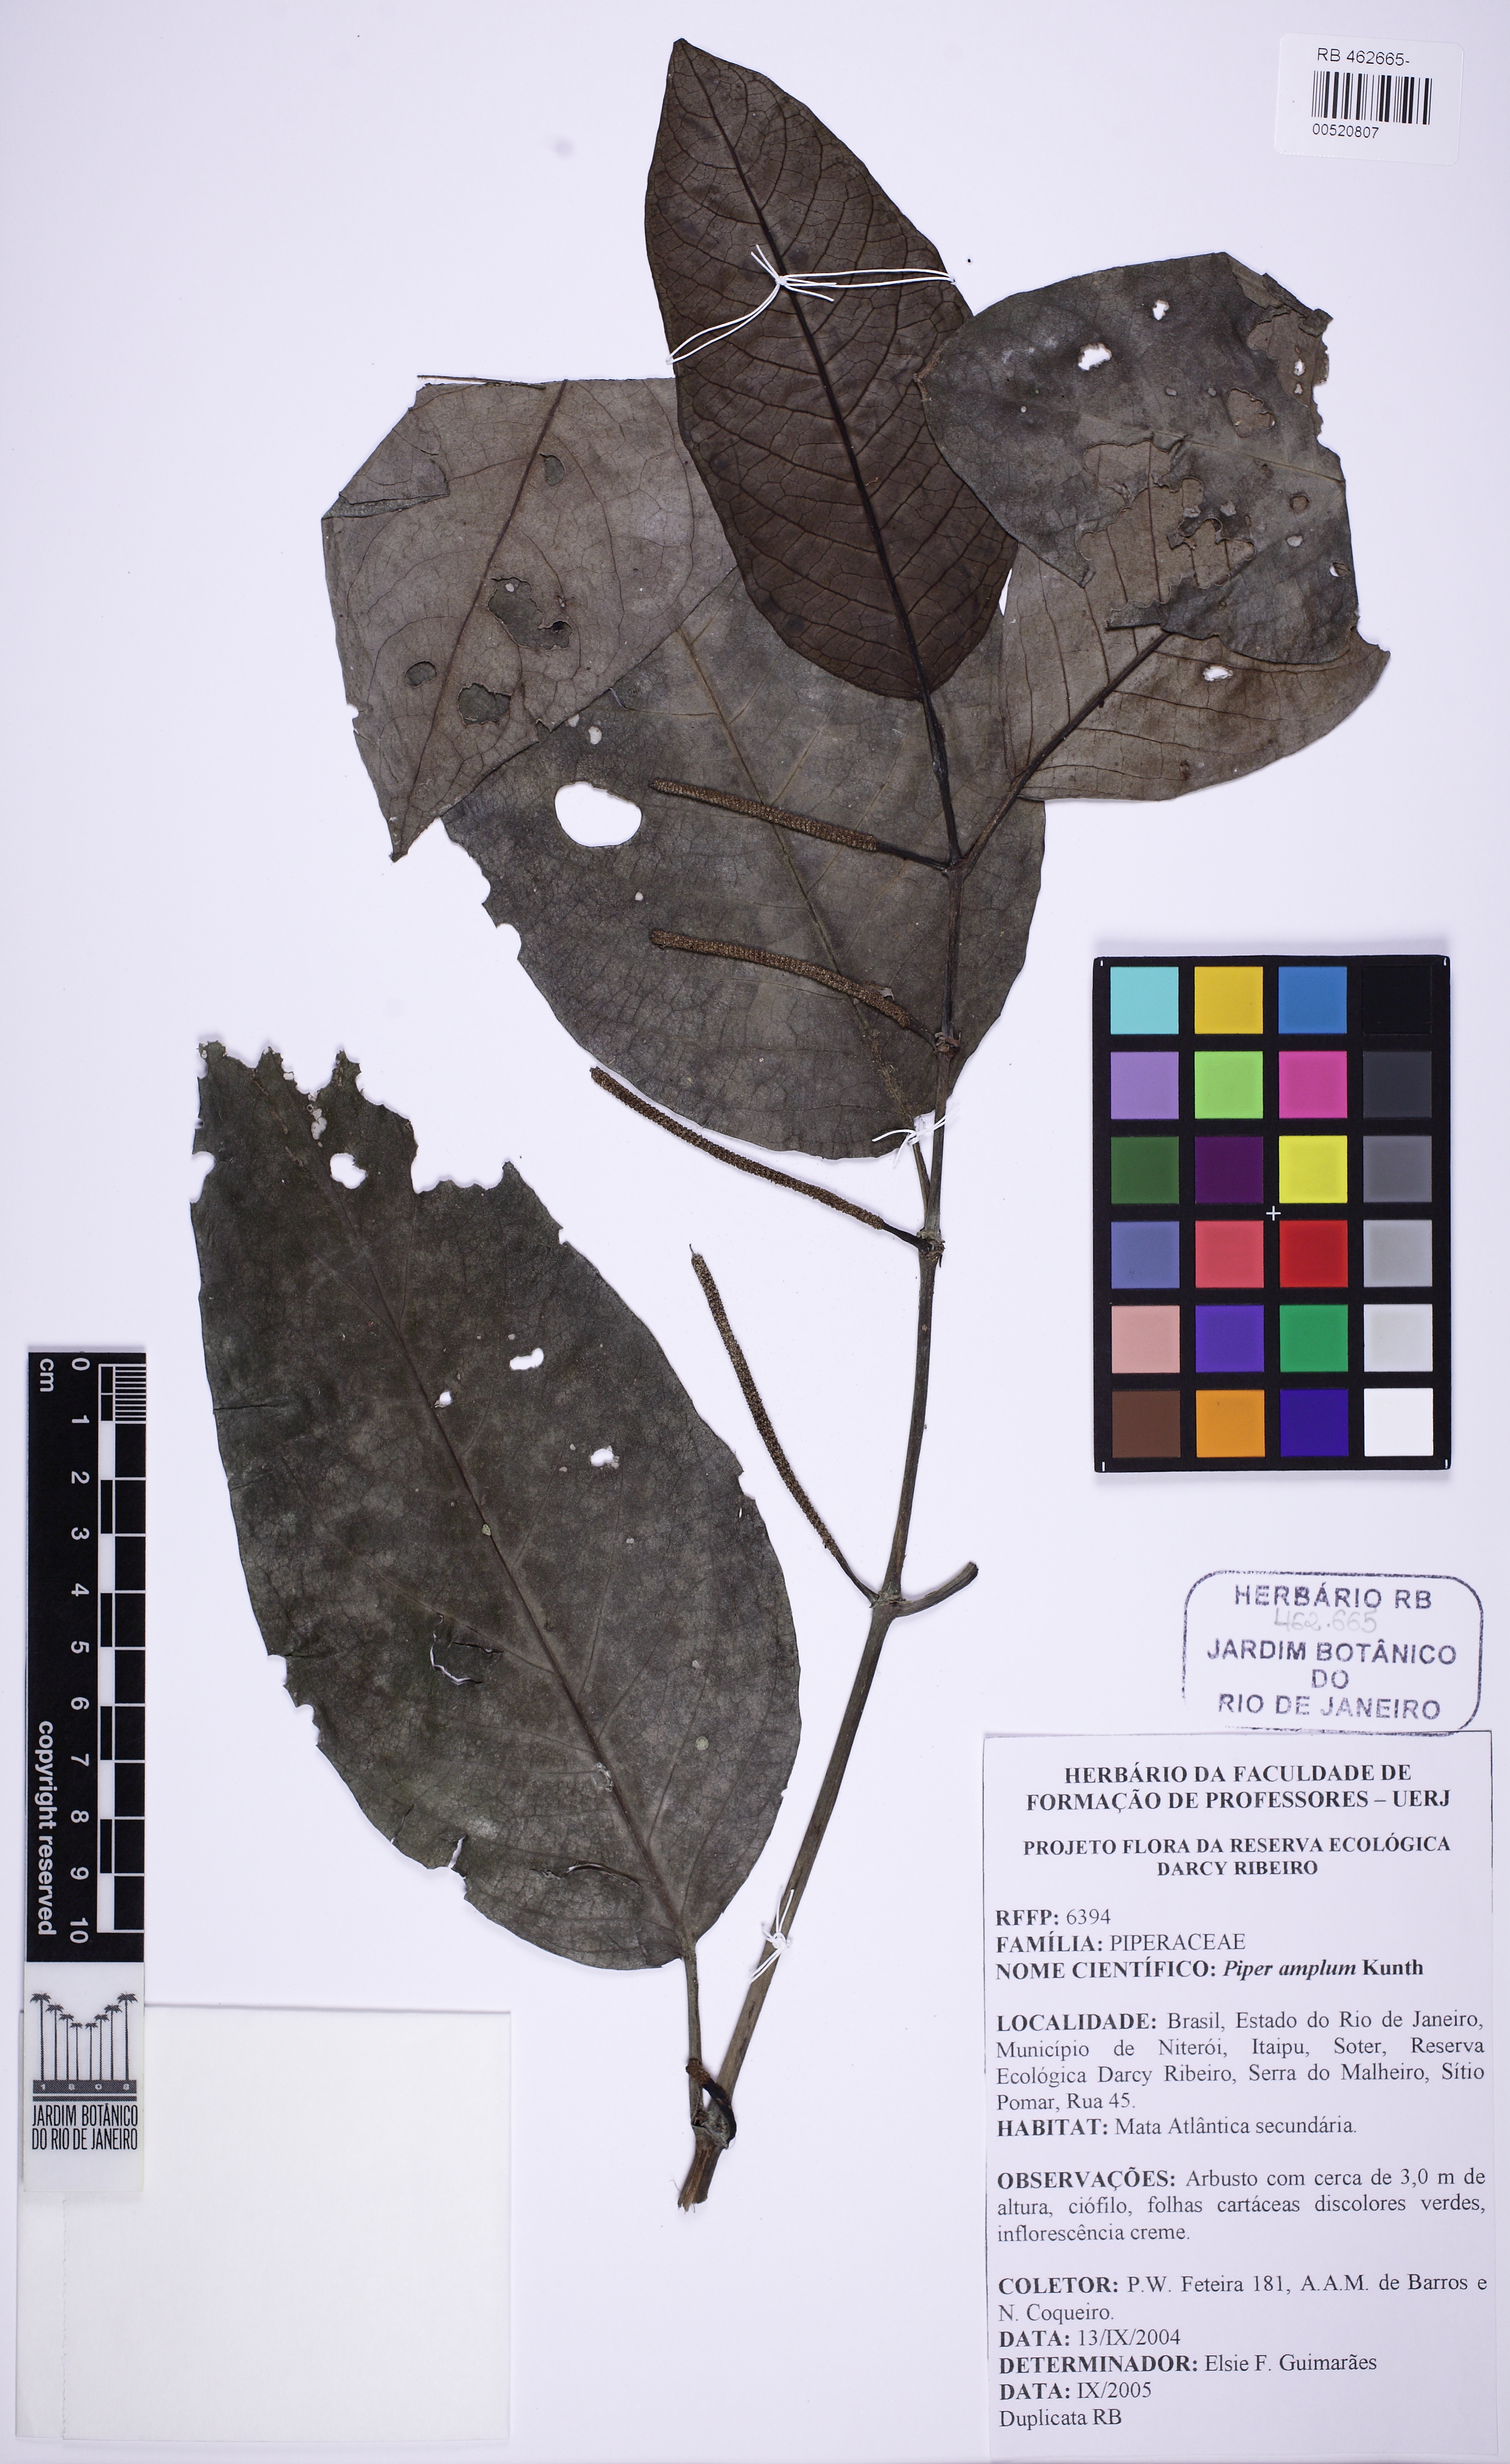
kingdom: Plantae
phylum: Tracheophyta
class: Magnoliopsida
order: Piperales
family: Piperaceae
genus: Piper
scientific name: Piper fluminense
